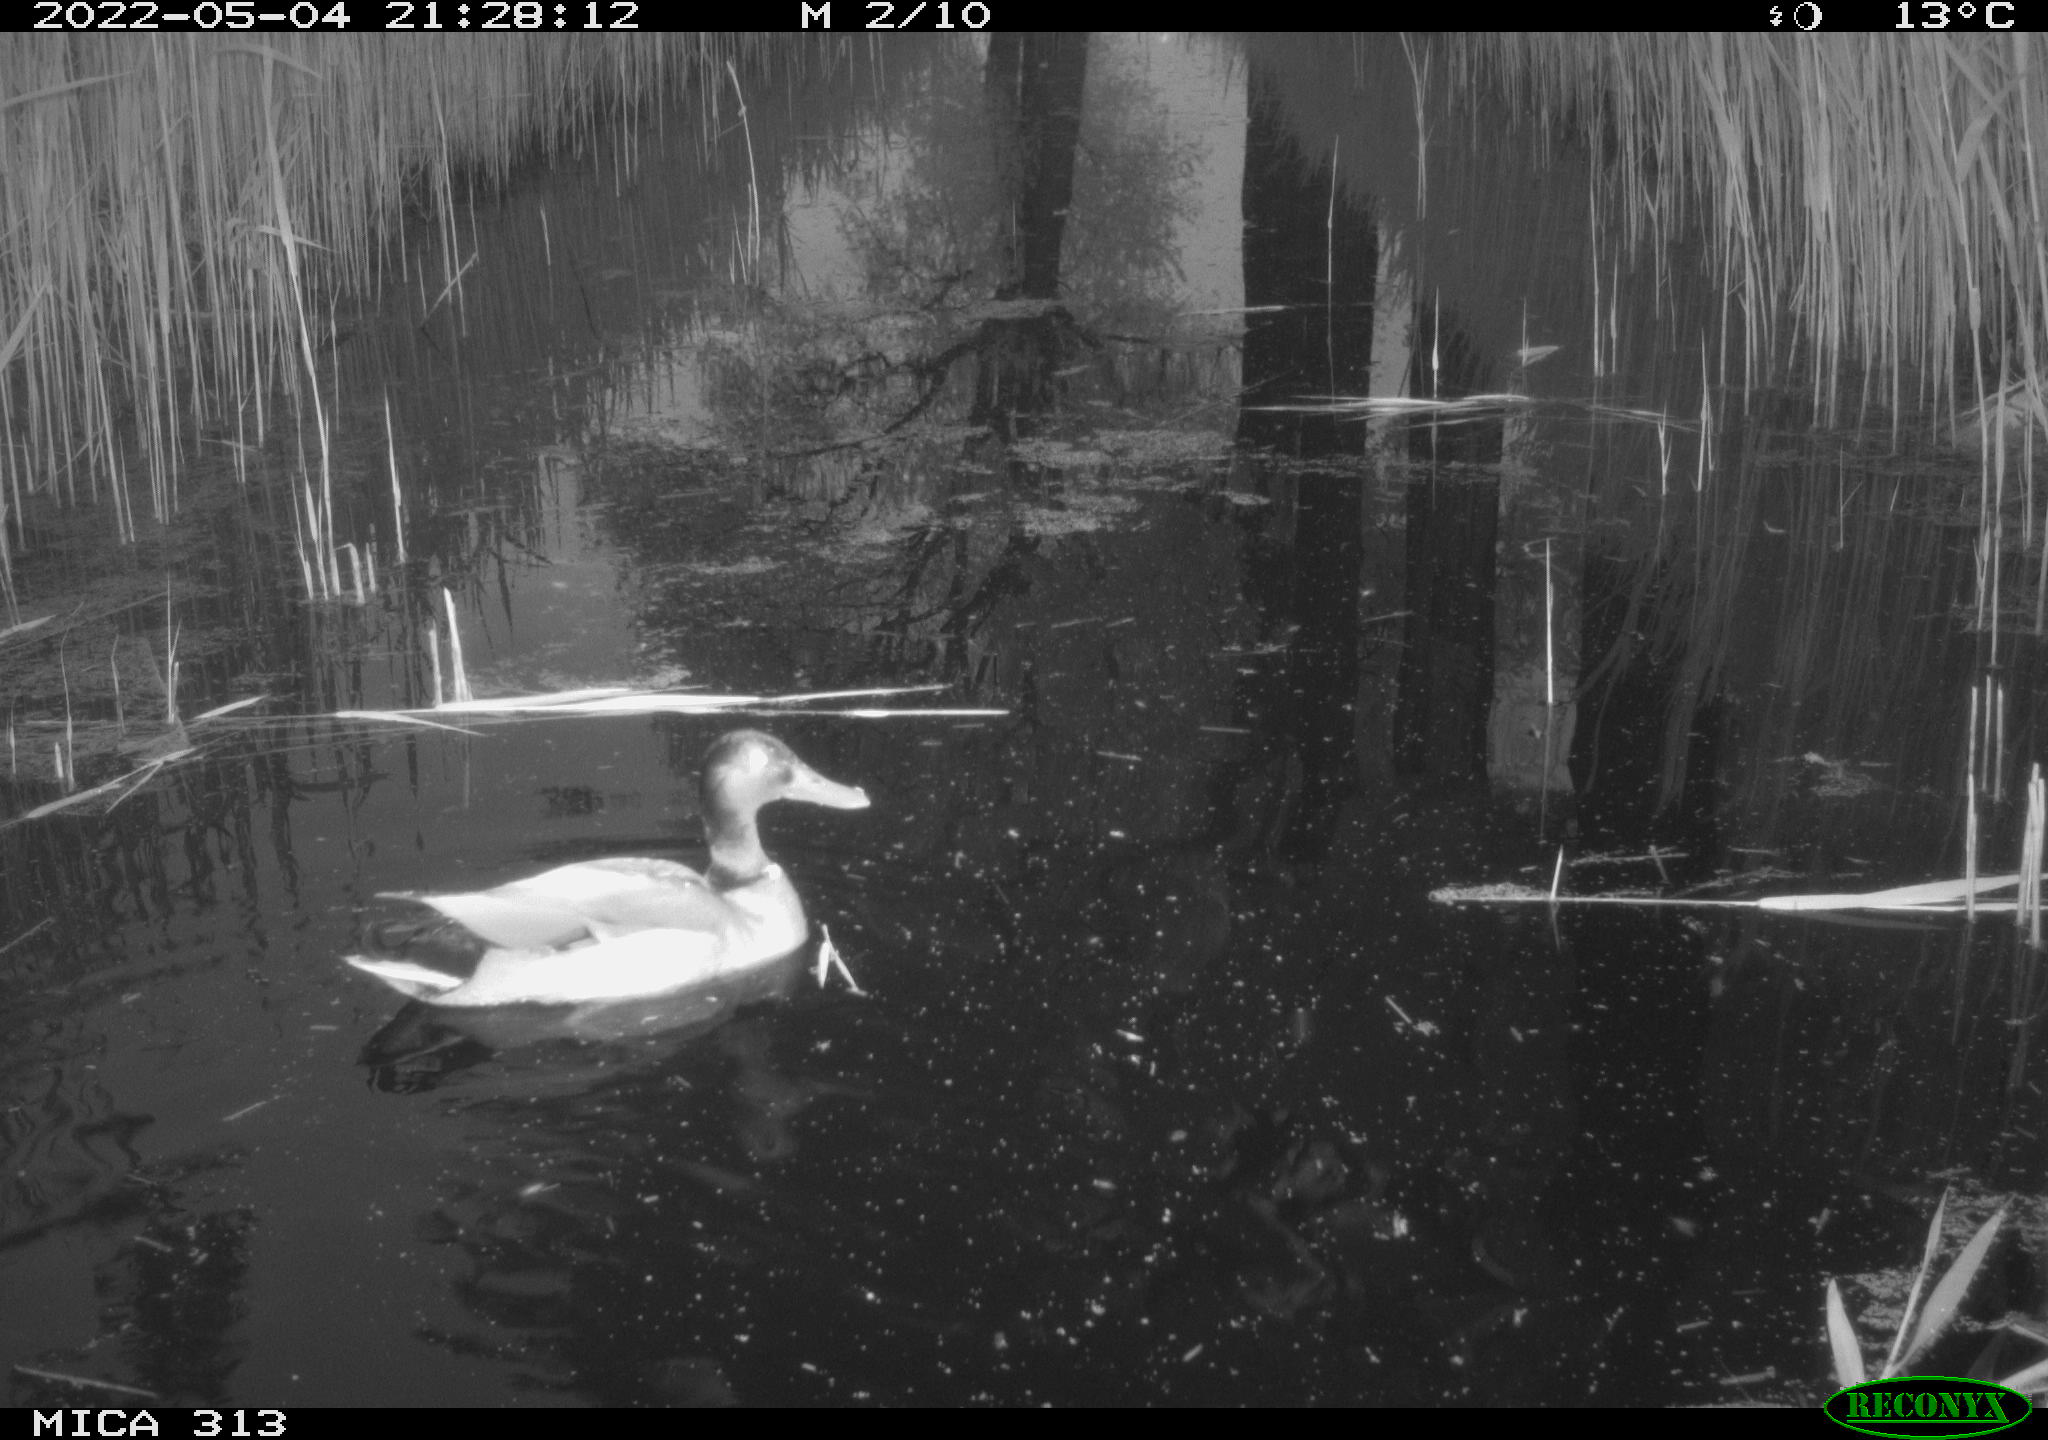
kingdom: Animalia
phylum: Chordata
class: Aves
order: Anseriformes
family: Anatidae
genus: Anas
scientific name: Anas platyrhynchos
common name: Mallard
